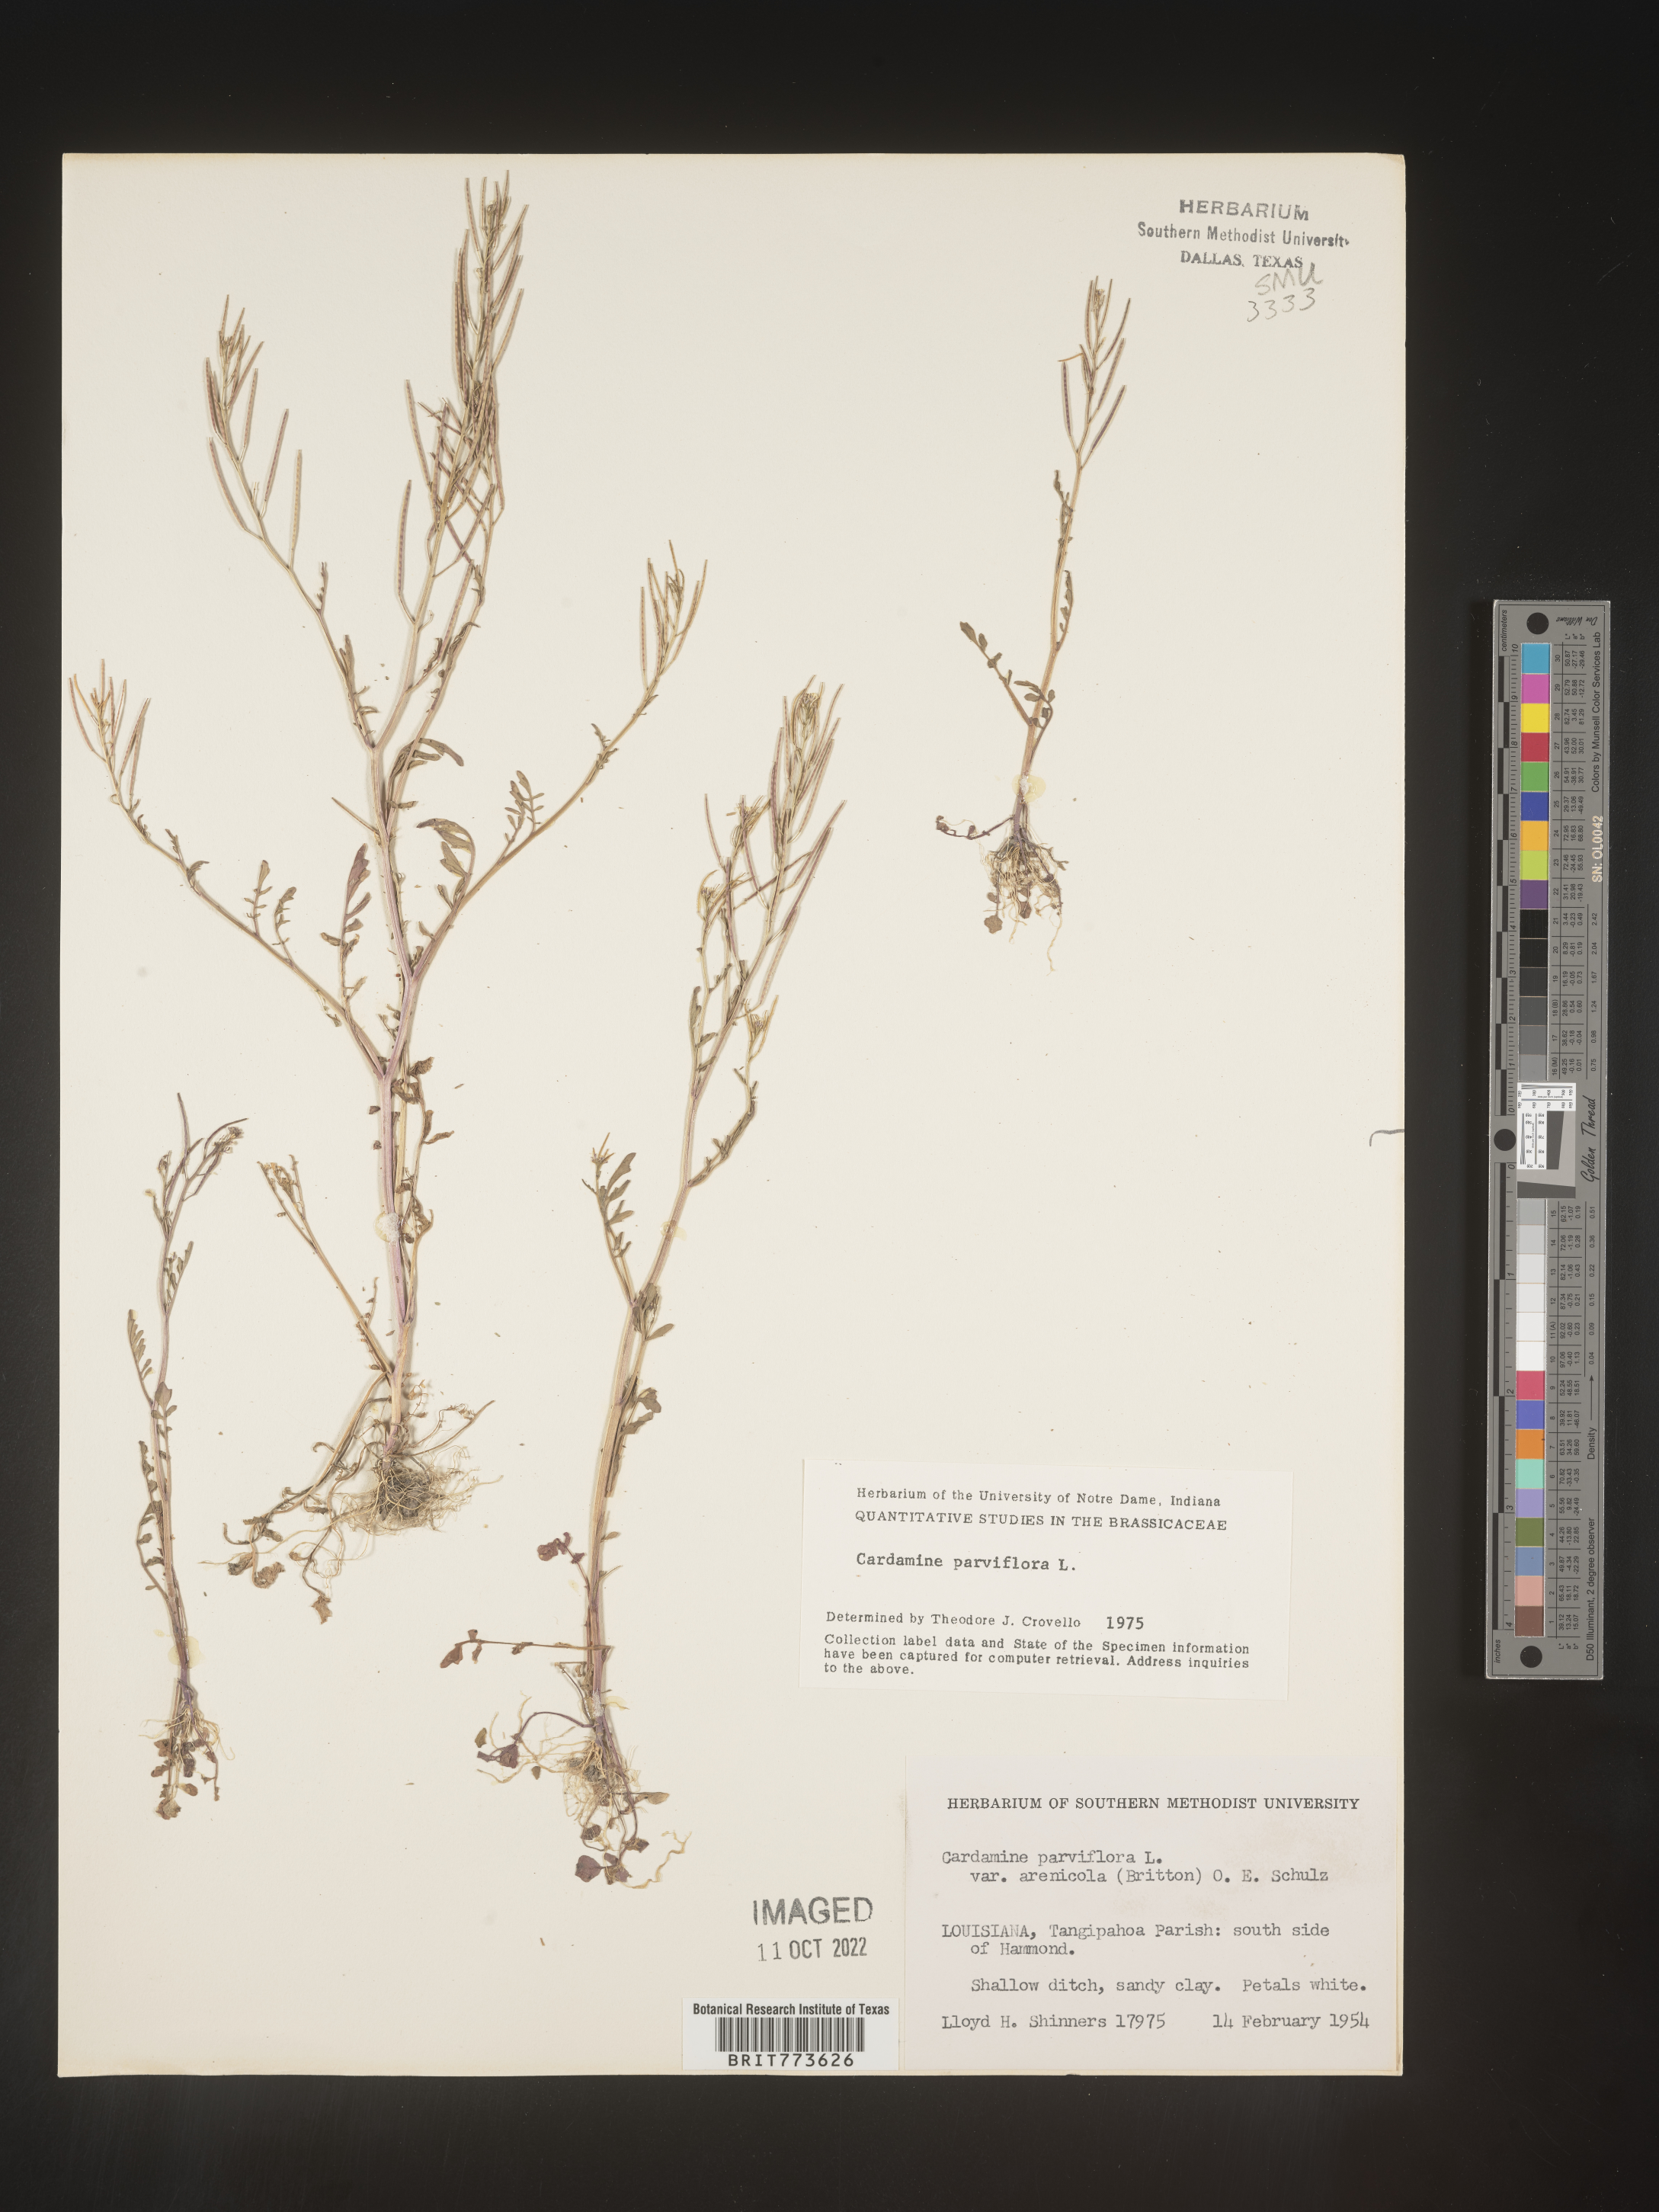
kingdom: Plantae
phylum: Tracheophyta
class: Magnoliopsida
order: Brassicales
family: Brassicaceae
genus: Cardamine
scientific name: Cardamine parviflora
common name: Sand bittercress
